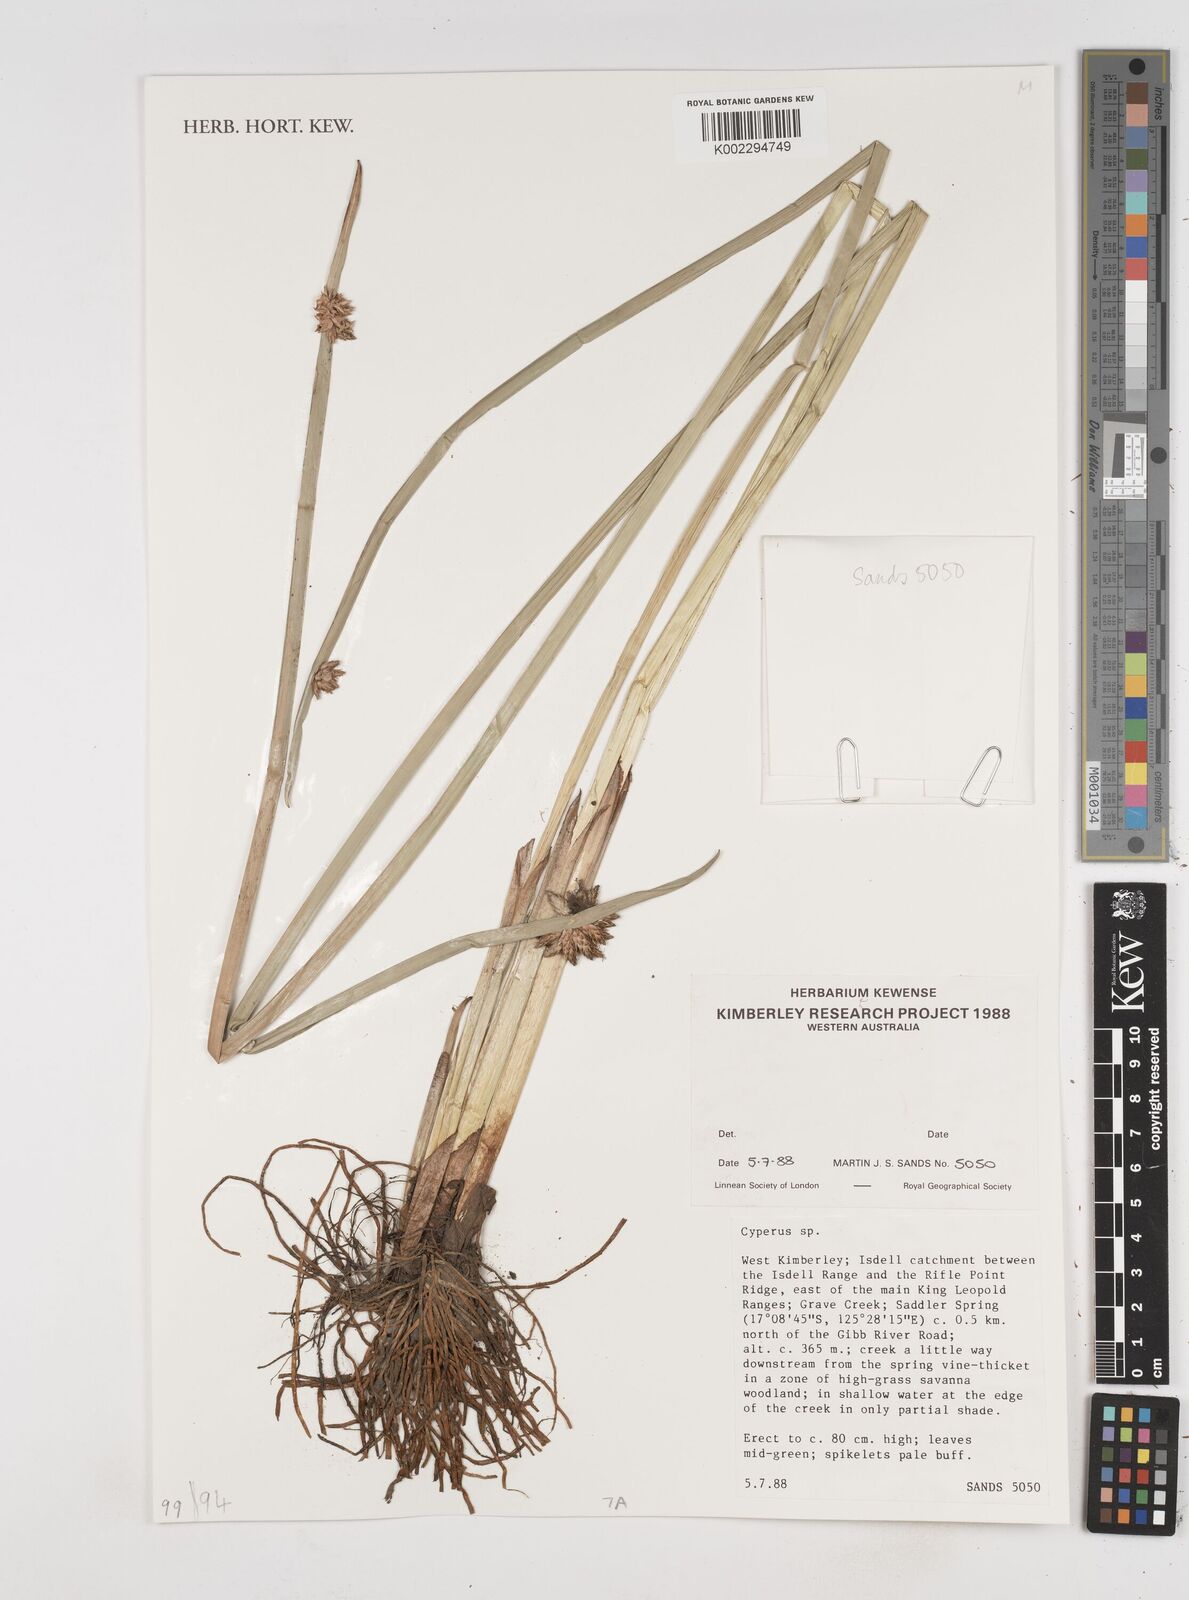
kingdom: Plantae
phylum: Tracheophyta
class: Liliopsida
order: Poales
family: Cyperaceae
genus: Cyperus
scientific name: Cyperus
